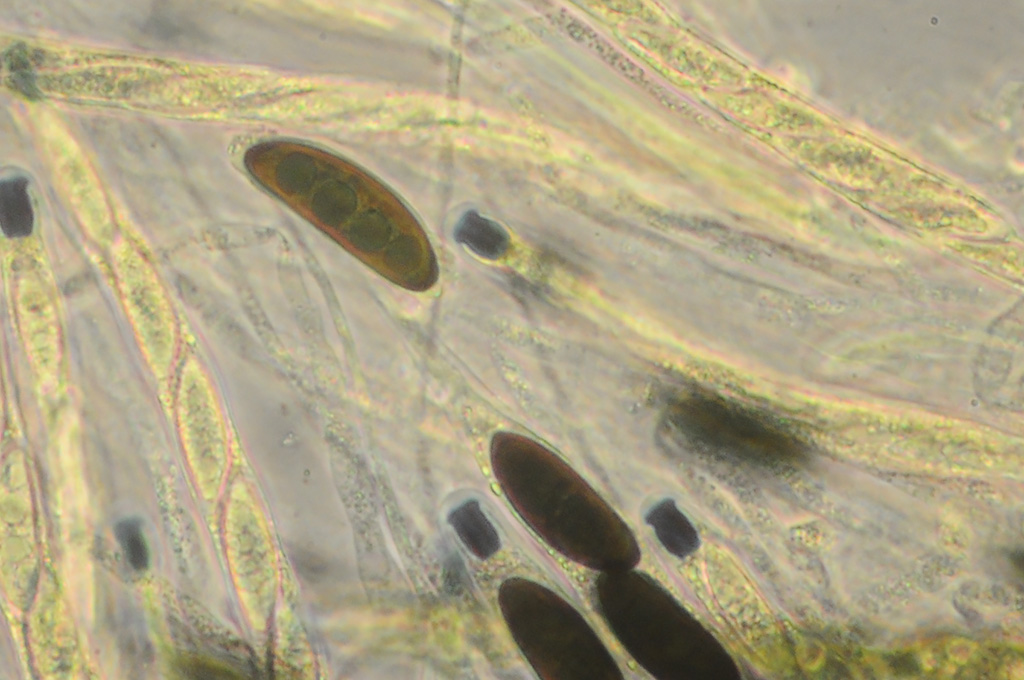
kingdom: Fungi
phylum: Ascomycota
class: Sordariomycetes
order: Xylariales
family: Xylariaceae
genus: Rosellinia
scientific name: Rosellinia corticium
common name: måtte-kulkaviar
